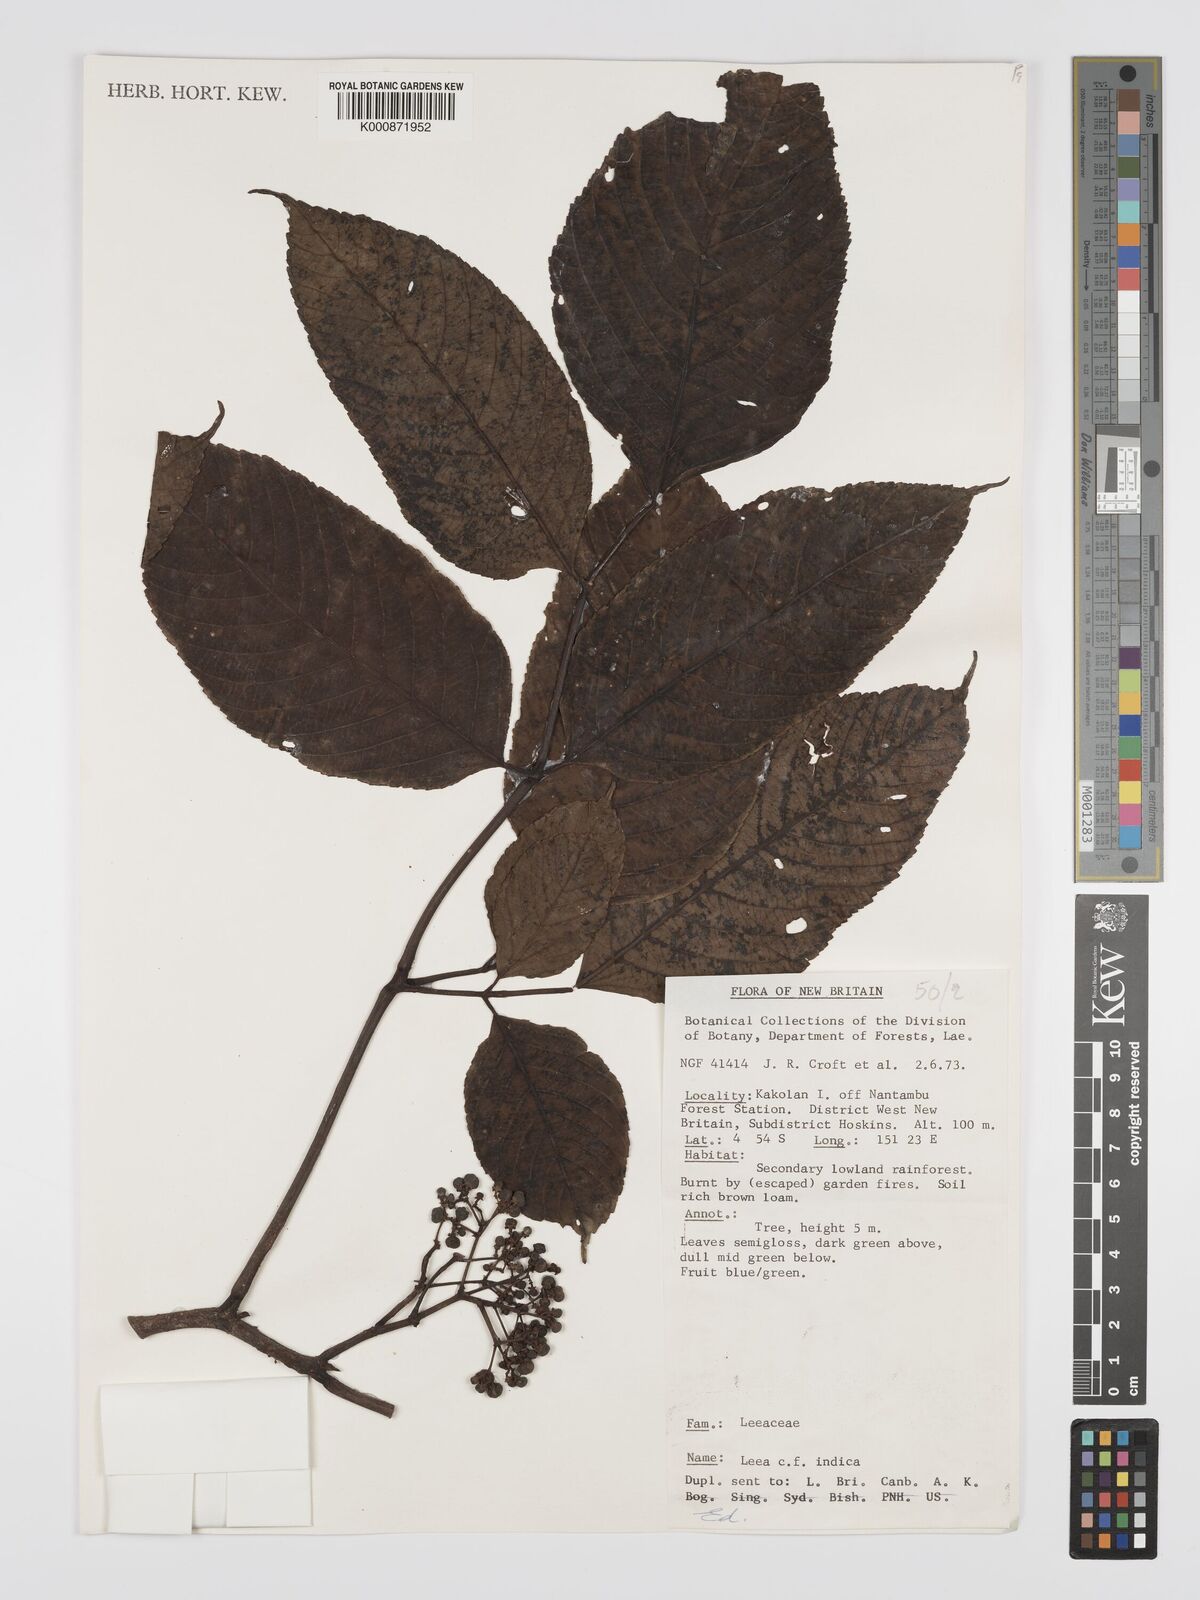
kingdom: Plantae
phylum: Tracheophyta
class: Magnoliopsida
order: Vitales
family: Vitaceae
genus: Leea
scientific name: Leea indica
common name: Bandicoot-berry
